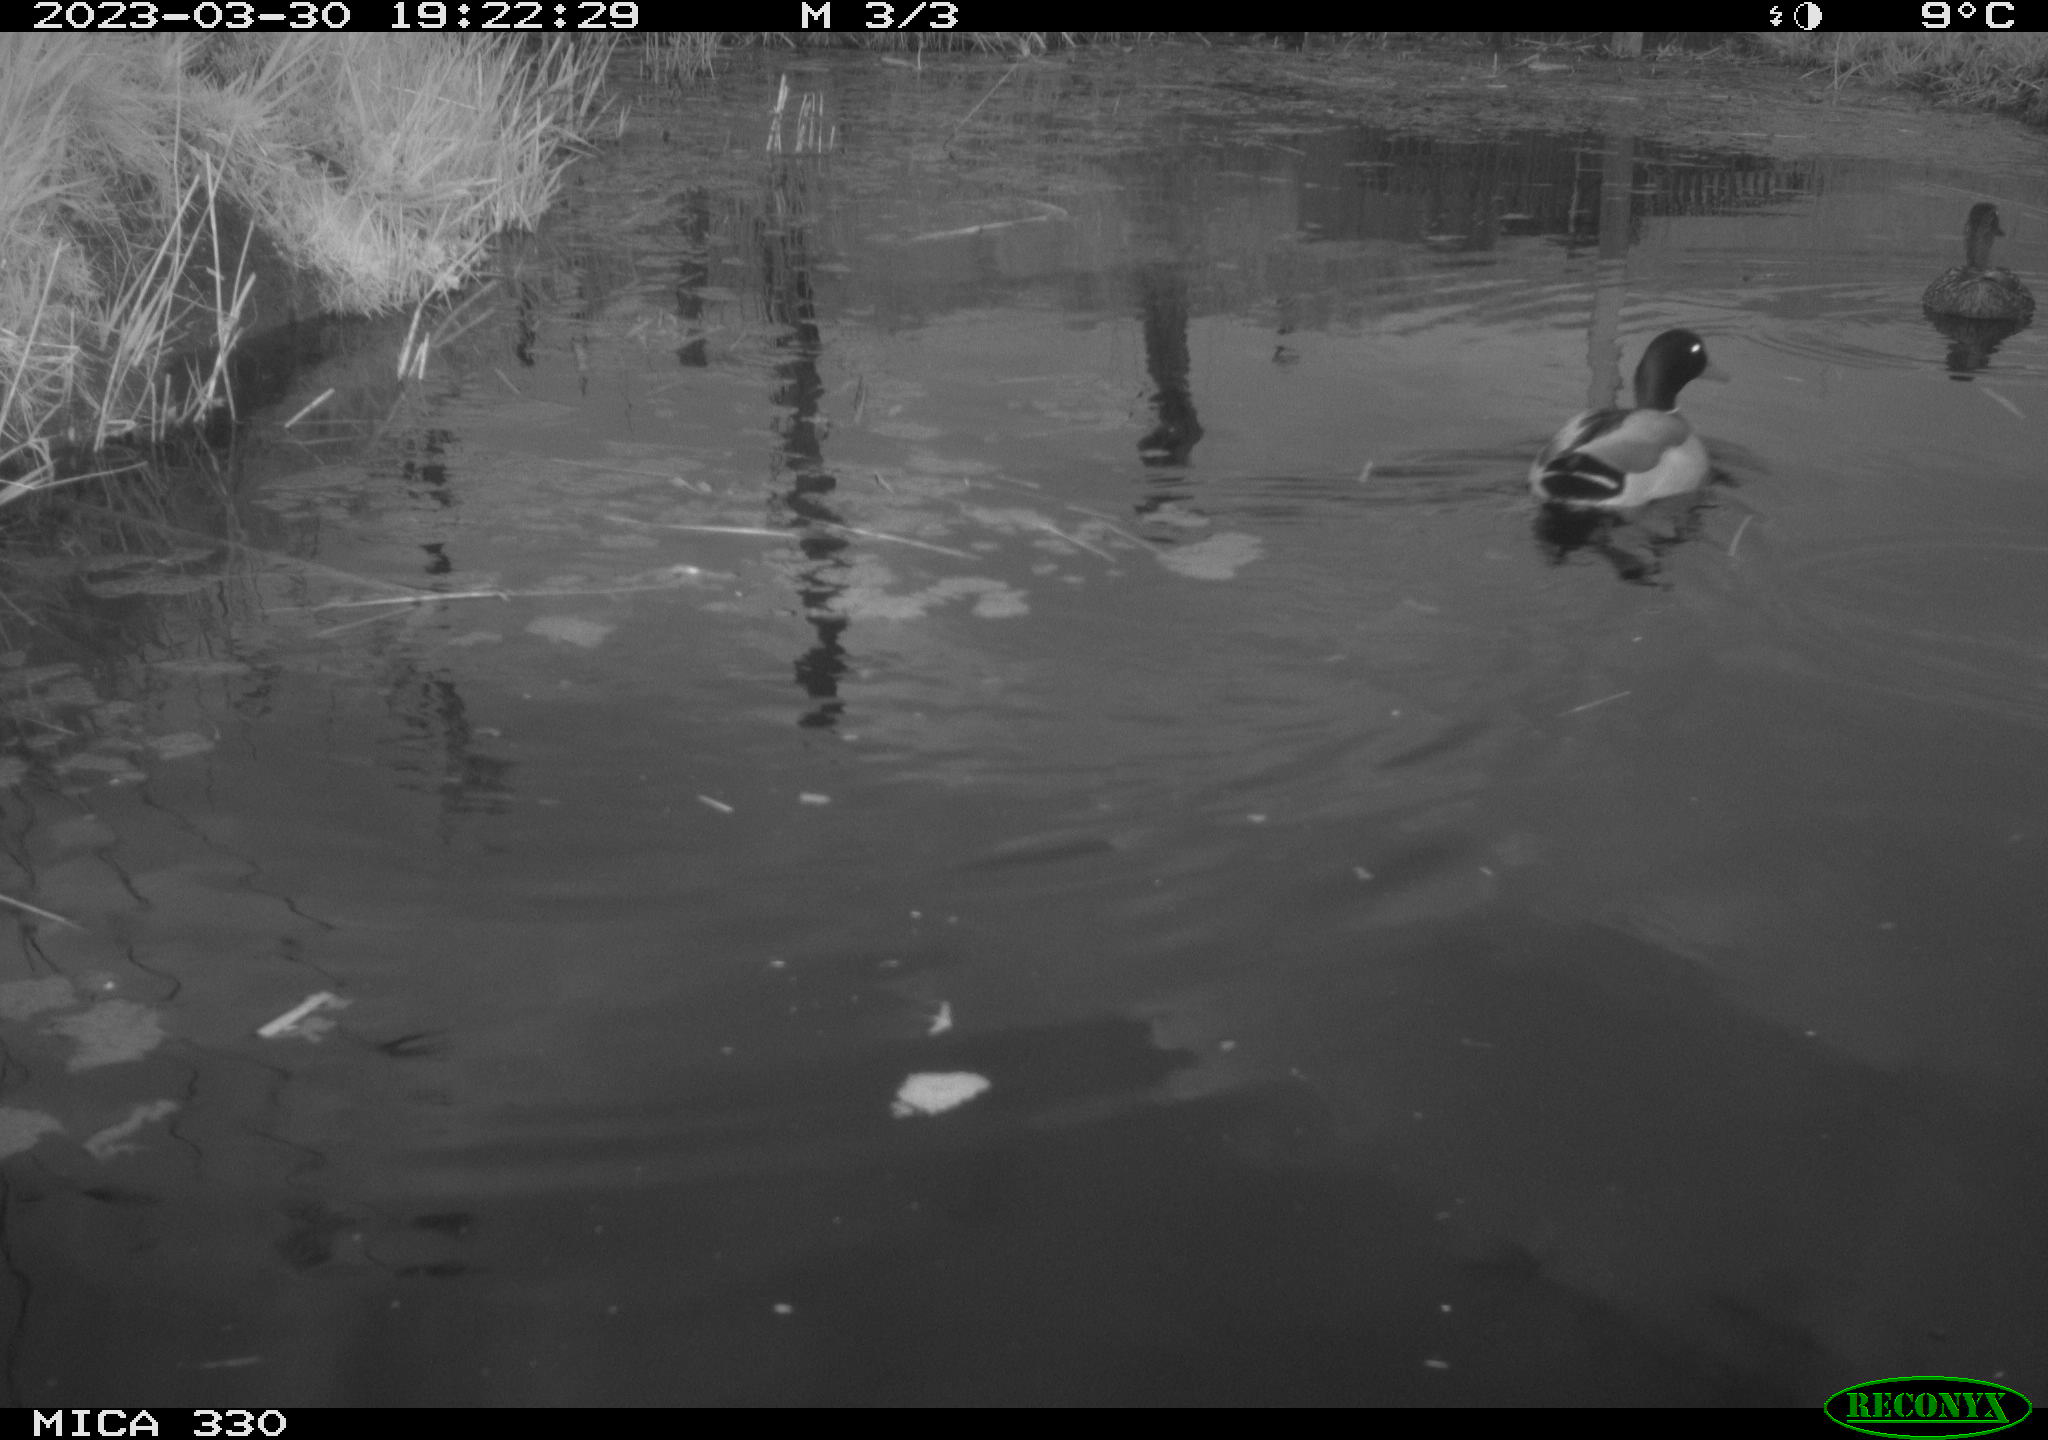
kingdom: Animalia
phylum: Chordata
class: Aves
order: Anseriformes
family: Anatidae
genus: Anas
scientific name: Anas platyrhynchos
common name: Mallard
